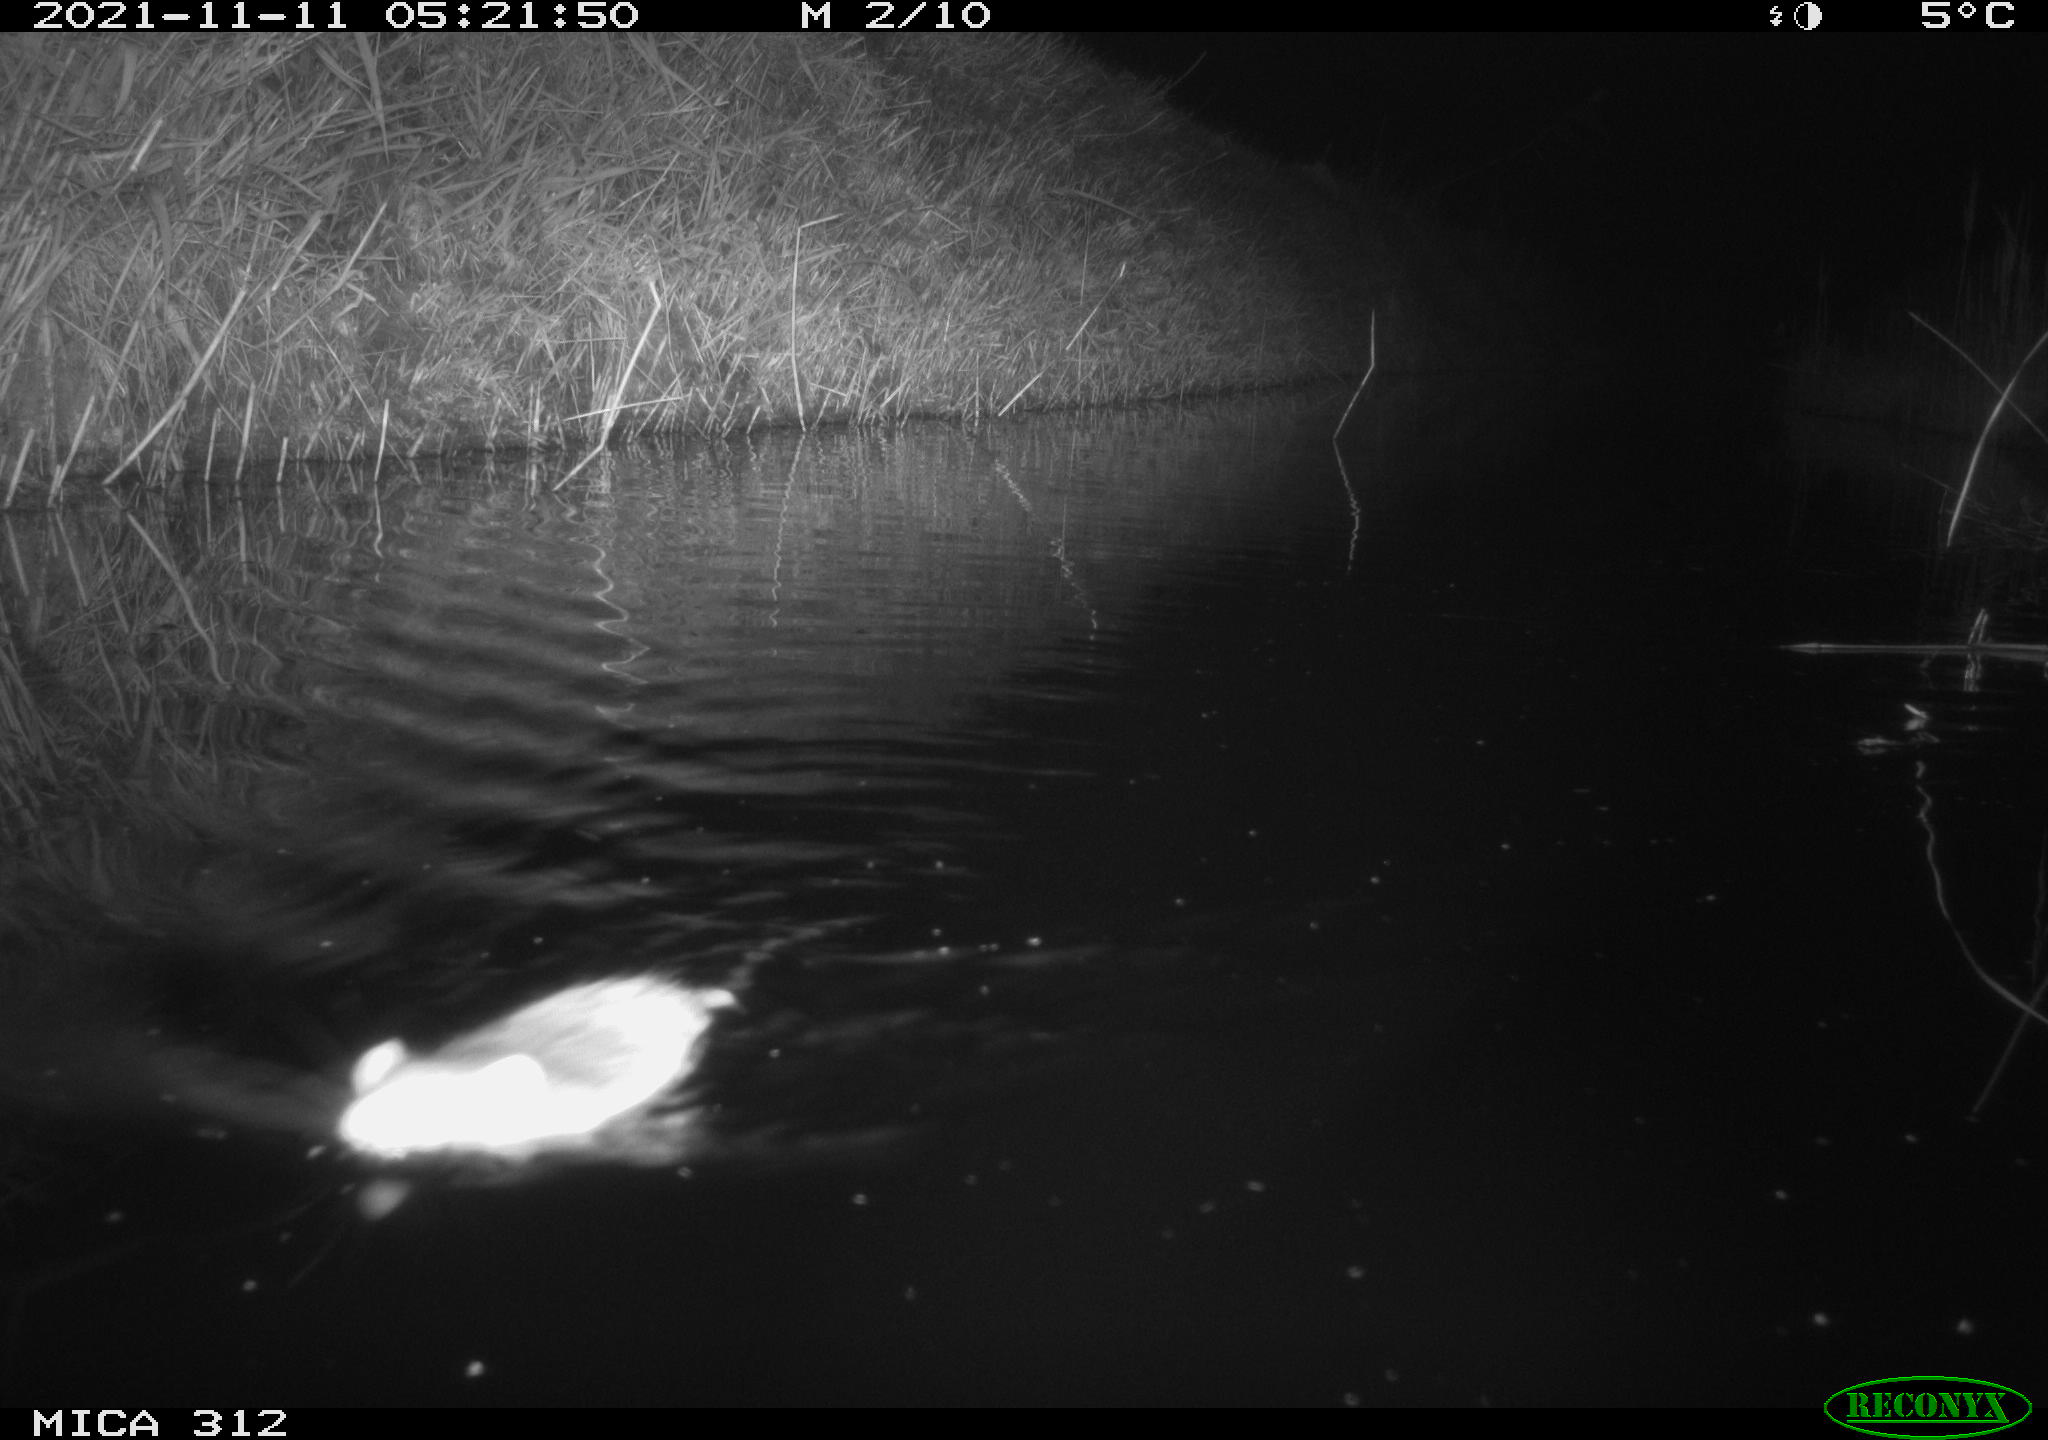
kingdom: Animalia
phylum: Chordata
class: Mammalia
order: Rodentia
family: Muridae
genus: Rattus
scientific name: Rattus norvegicus
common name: Brown rat
